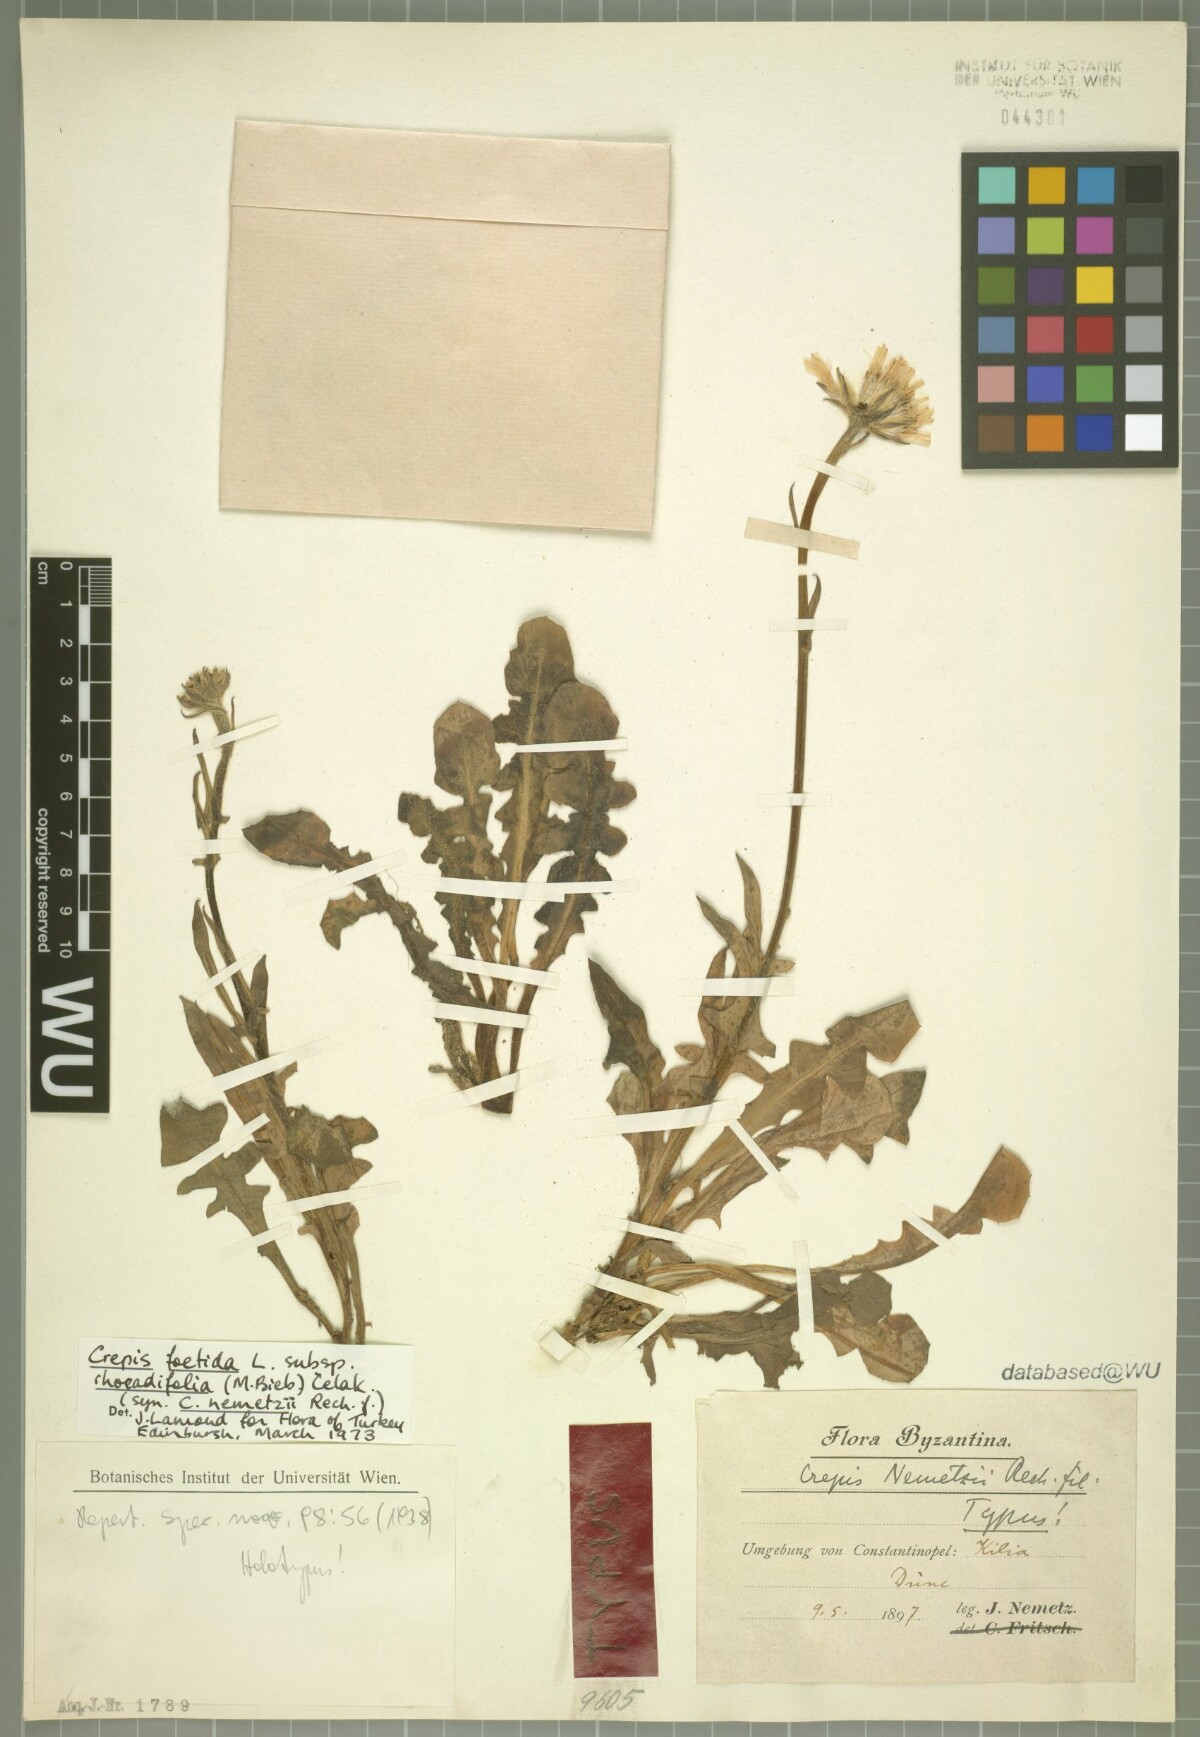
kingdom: Plantae
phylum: Tracheophyta
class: Magnoliopsida
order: Asterales
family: Asteraceae
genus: Crepis
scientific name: Crepis foetida
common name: Stinking hawk's-beard
